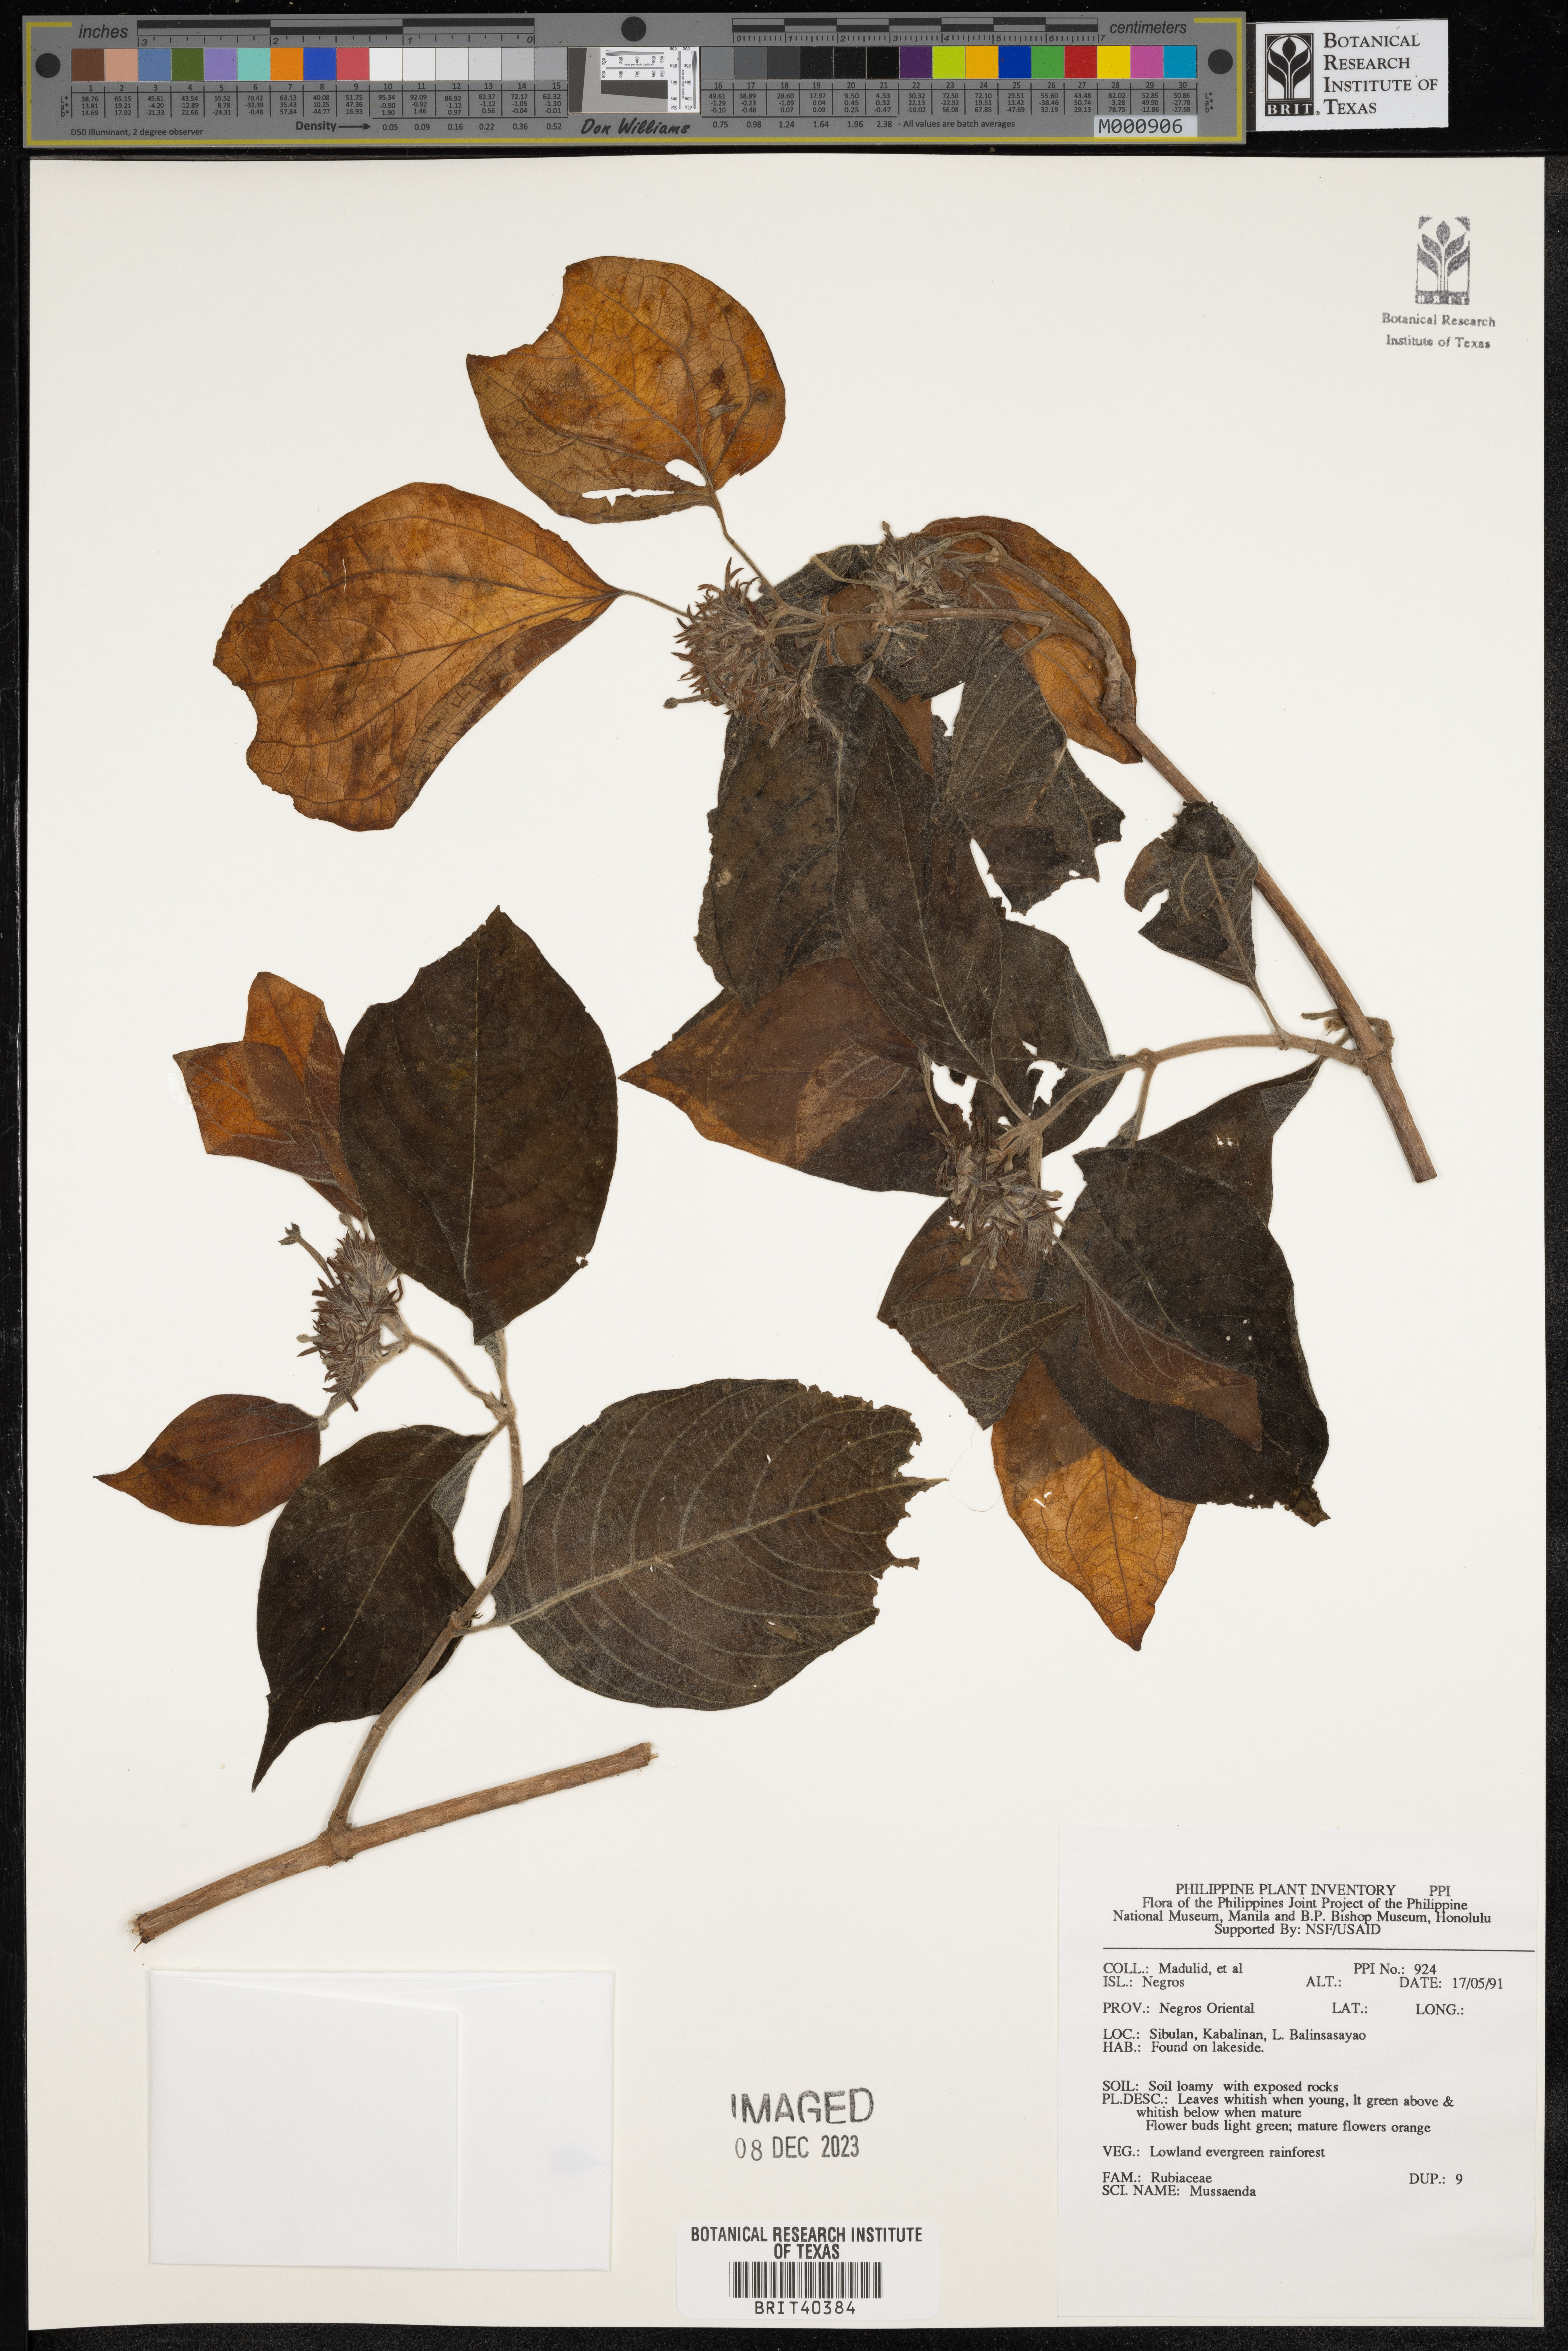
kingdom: Plantae
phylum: Tracheophyta
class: Magnoliopsida
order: Gentianales
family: Rubiaceae
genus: Mussaenda
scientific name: Mussaenda
